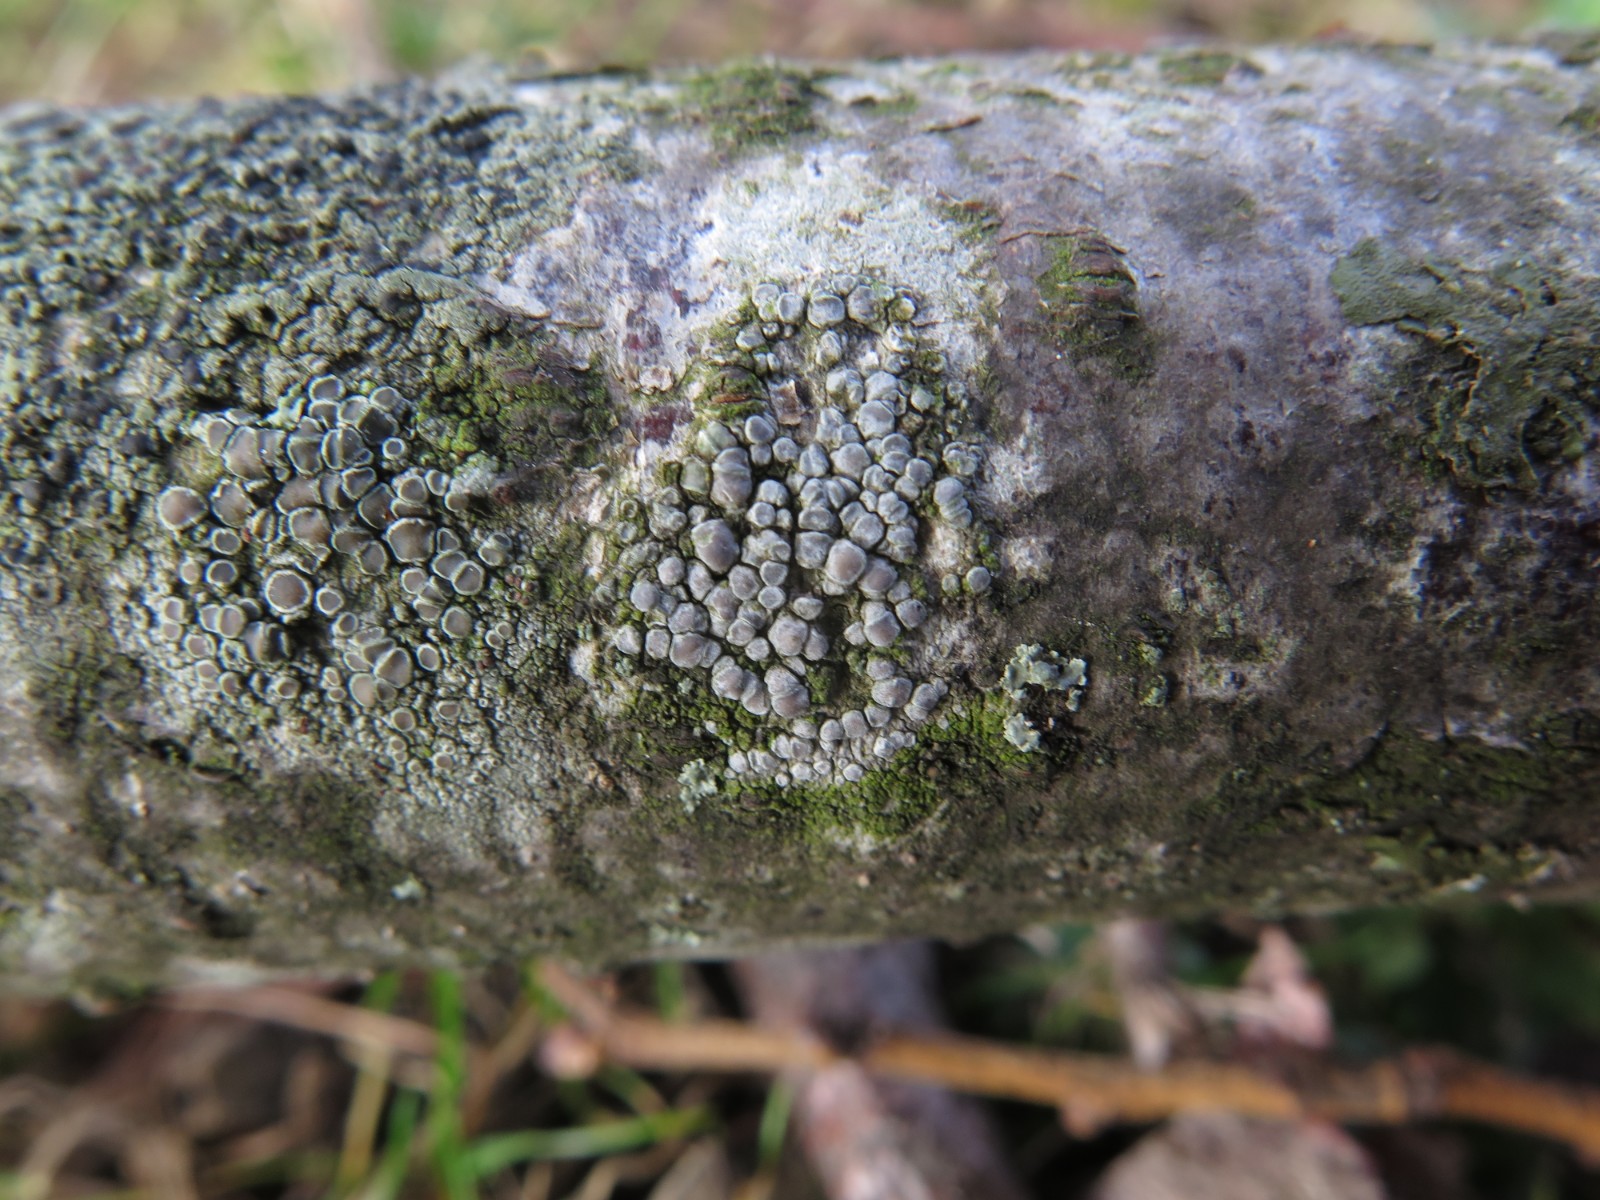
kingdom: Fungi
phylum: Ascomycota
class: Lecanoromycetes
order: Lecanorales
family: Lecanoraceae
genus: Glaucomaria
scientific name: Glaucomaria carpinea
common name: hviddugget kantskivelav
